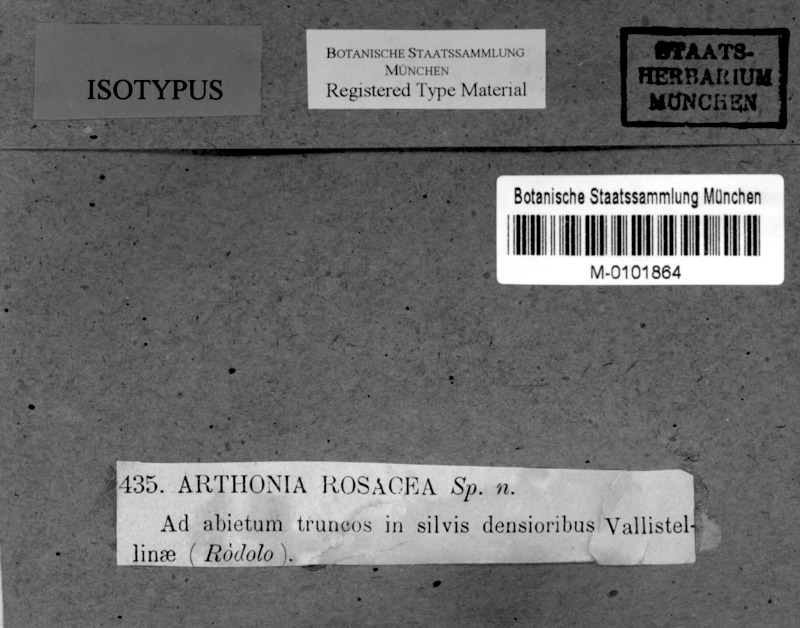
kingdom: Fungi
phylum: Ascomycota
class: Arthoniomycetes
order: Arthoniales
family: Arthoniaceae
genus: Arthothelium
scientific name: Arthothelium ruanum
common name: Jaguar-spot comma lichen
